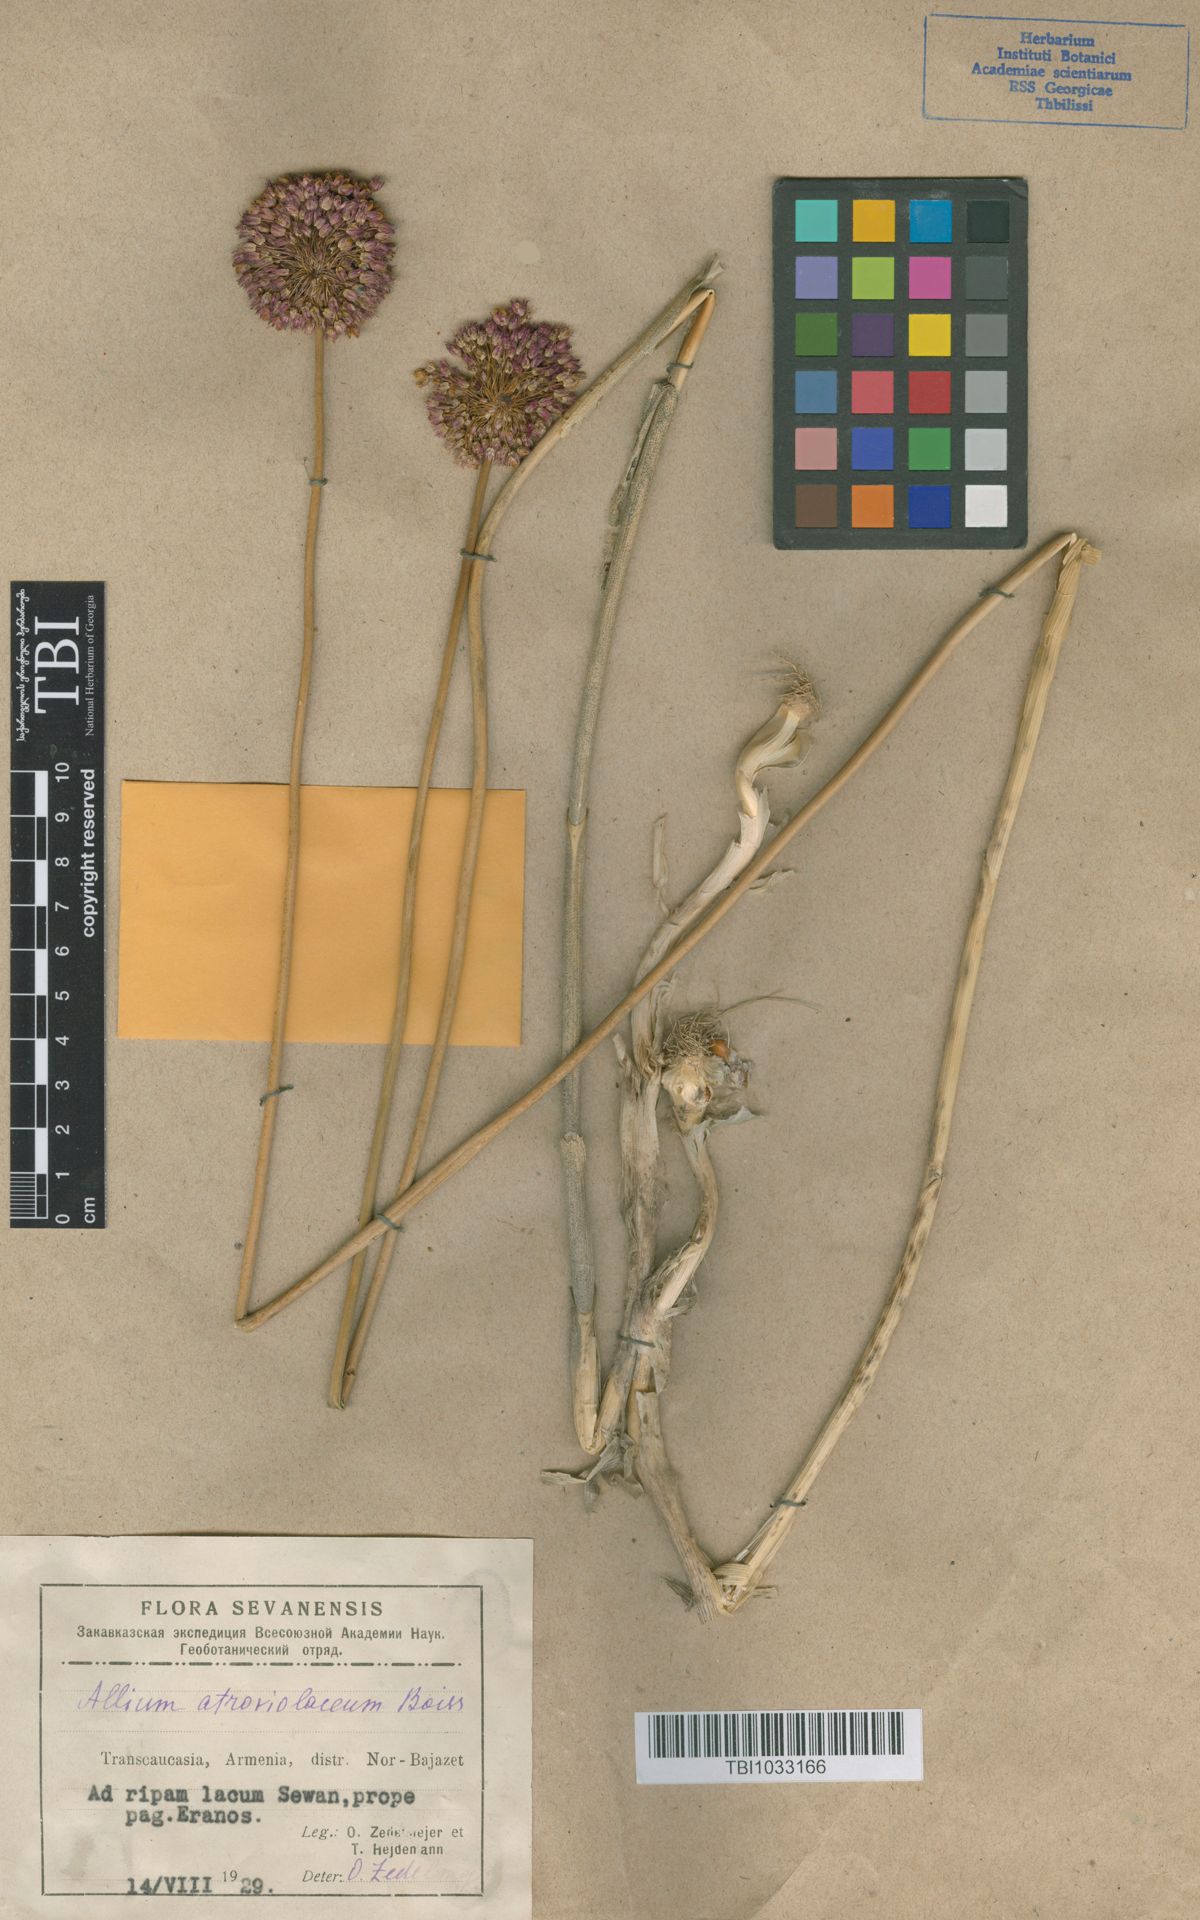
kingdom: Plantae
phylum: Tracheophyta
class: Liliopsida
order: Asparagales
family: Amaryllidaceae
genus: Allium
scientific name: Allium atroviolaceum
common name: Broadleaf wild leek
